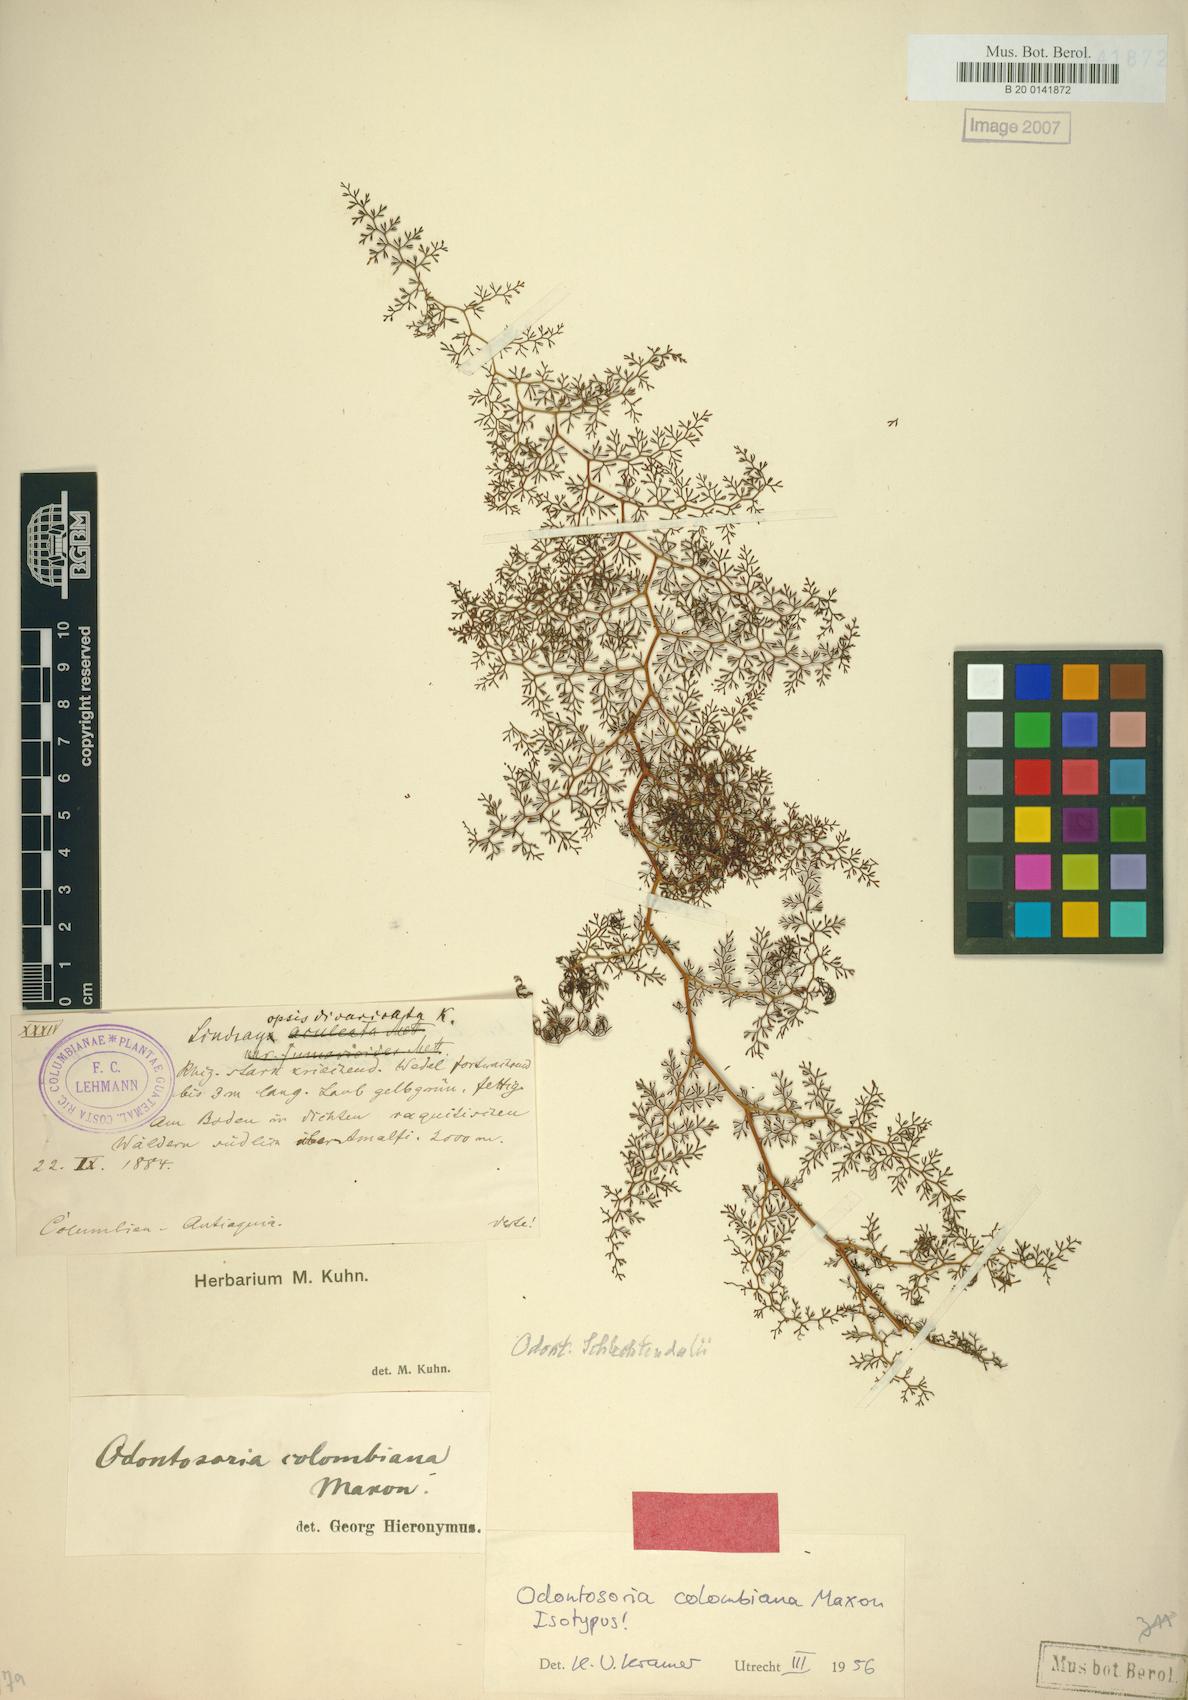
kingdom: Plantae
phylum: Tracheophyta
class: Polypodiopsida
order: Polypodiales
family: Lindsaeaceae
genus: Odontosoria
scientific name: Odontosoria colombiana
